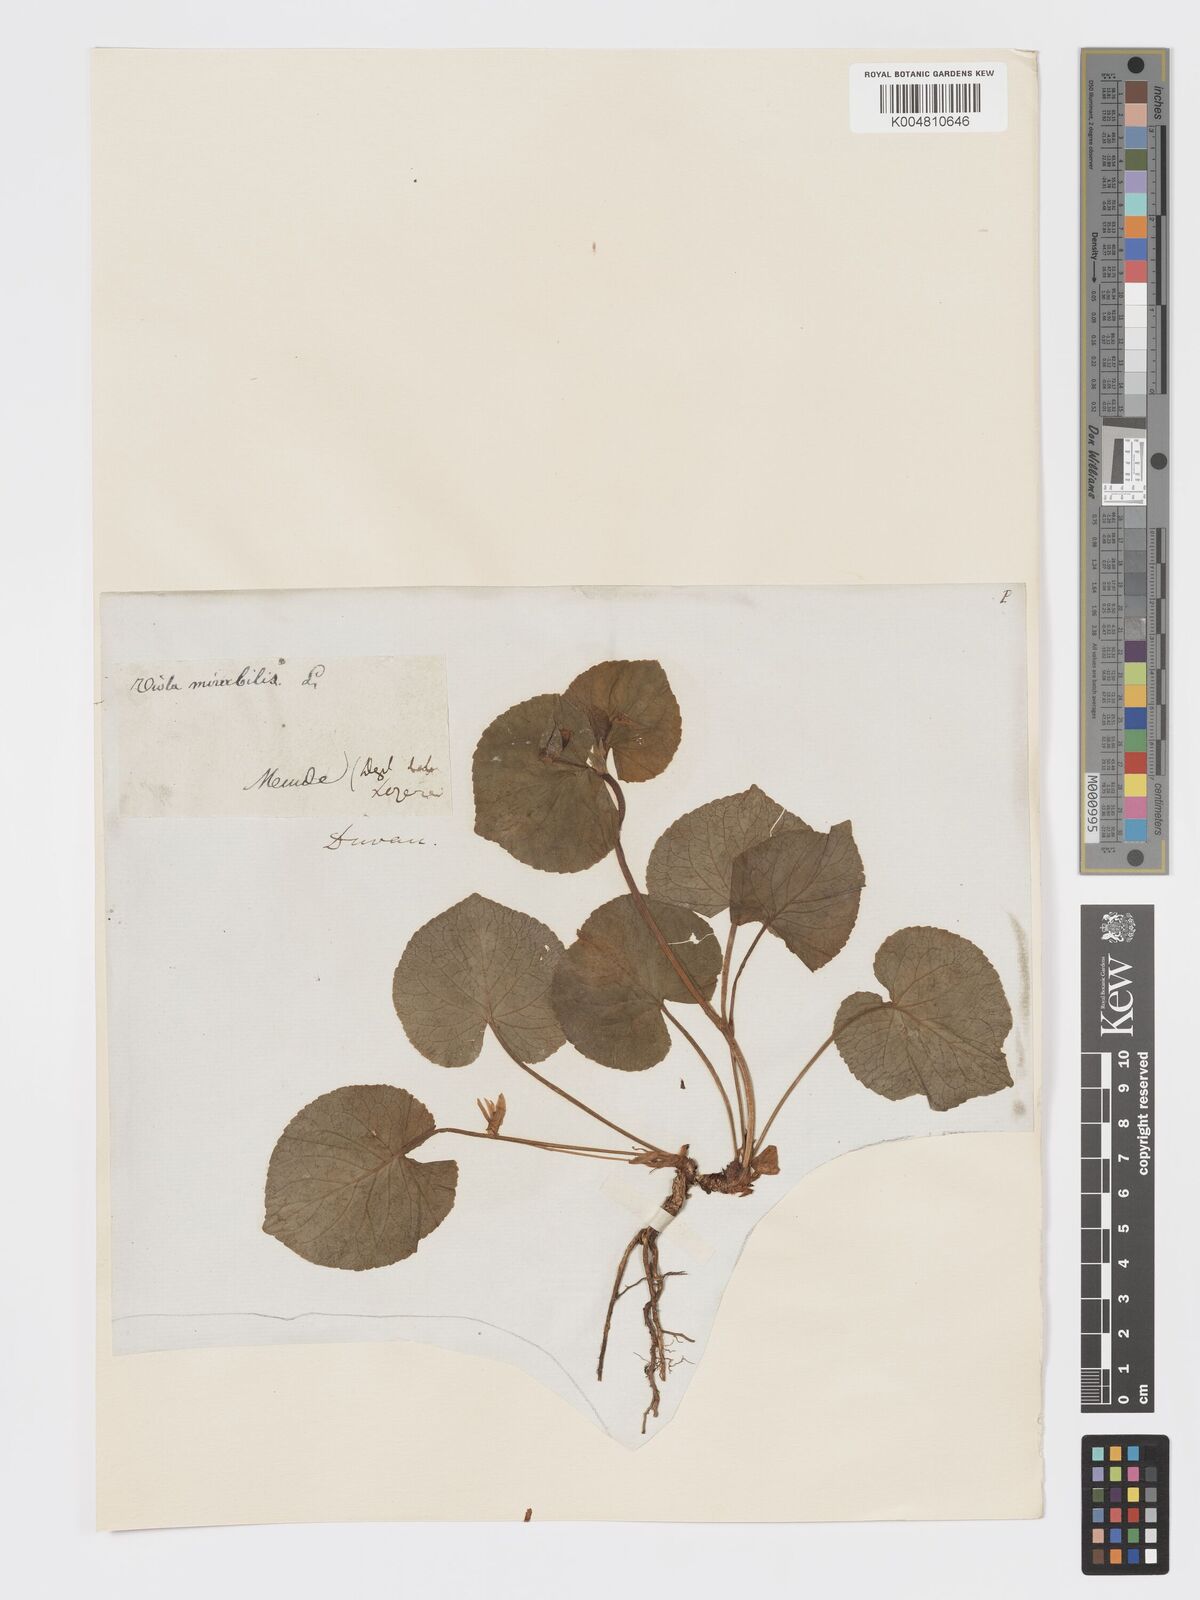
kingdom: Plantae
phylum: Tracheophyta
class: Magnoliopsida
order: Malpighiales
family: Violaceae
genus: Viola
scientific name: Viola mirabilis
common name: Wonder violet
